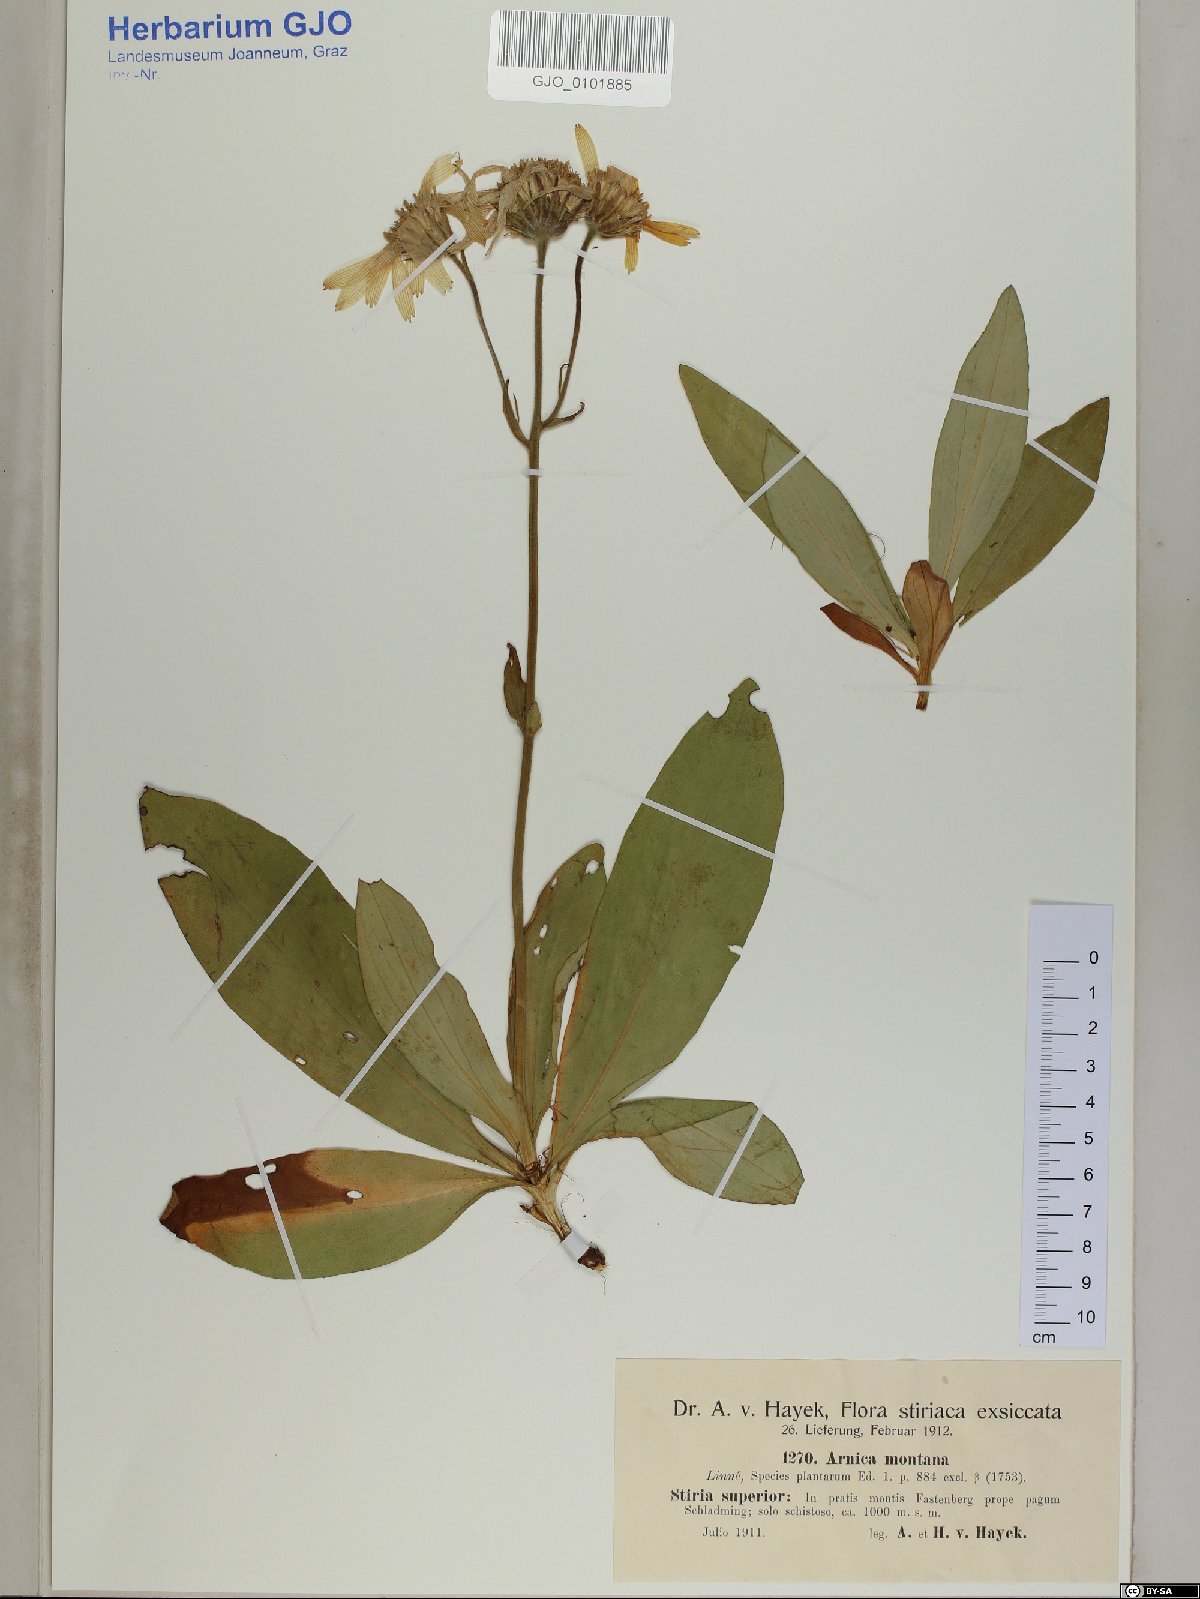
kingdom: Plantae
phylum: Tracheophyta
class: Magnoliopsida
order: Asterales
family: Asteraceae
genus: Arnica
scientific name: Arnica montana
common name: Leopard's bane
